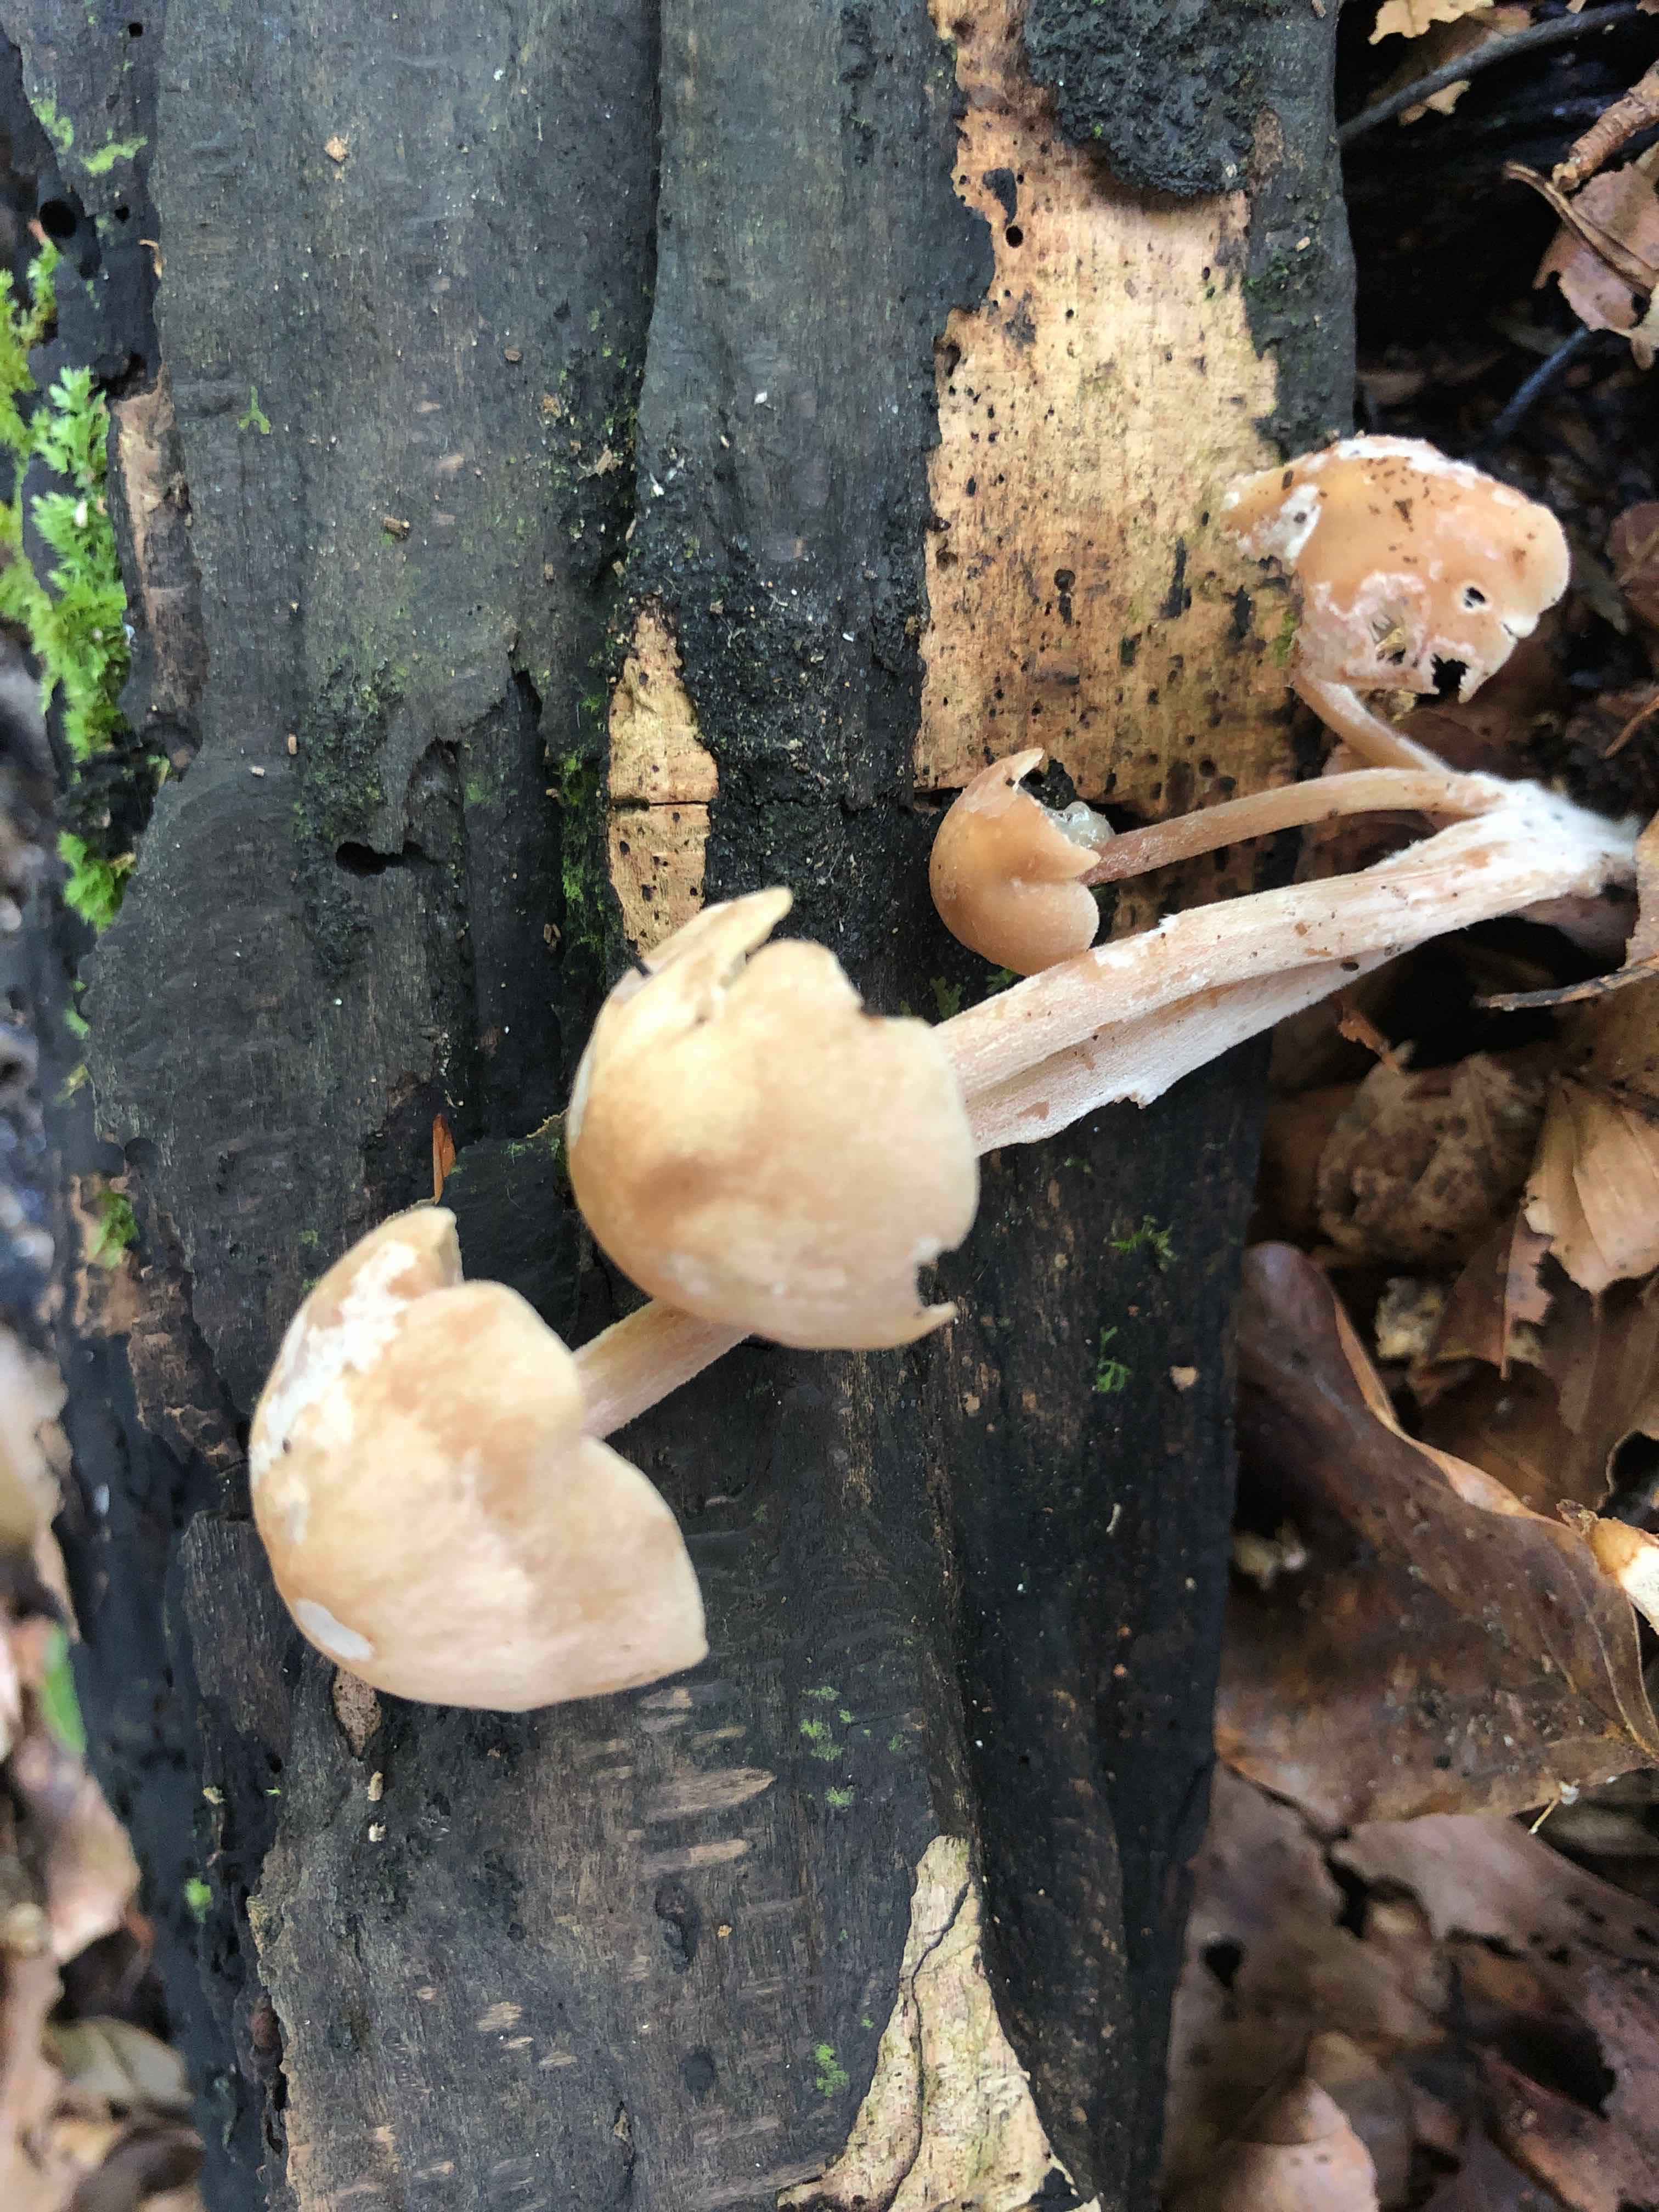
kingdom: Fungi
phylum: Basidiomycota
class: Agaricomycetes
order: Agaricales
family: Omphalotaceae
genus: Collybiopsis
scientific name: Collybiopsis confluens
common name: knippe-fladhat
